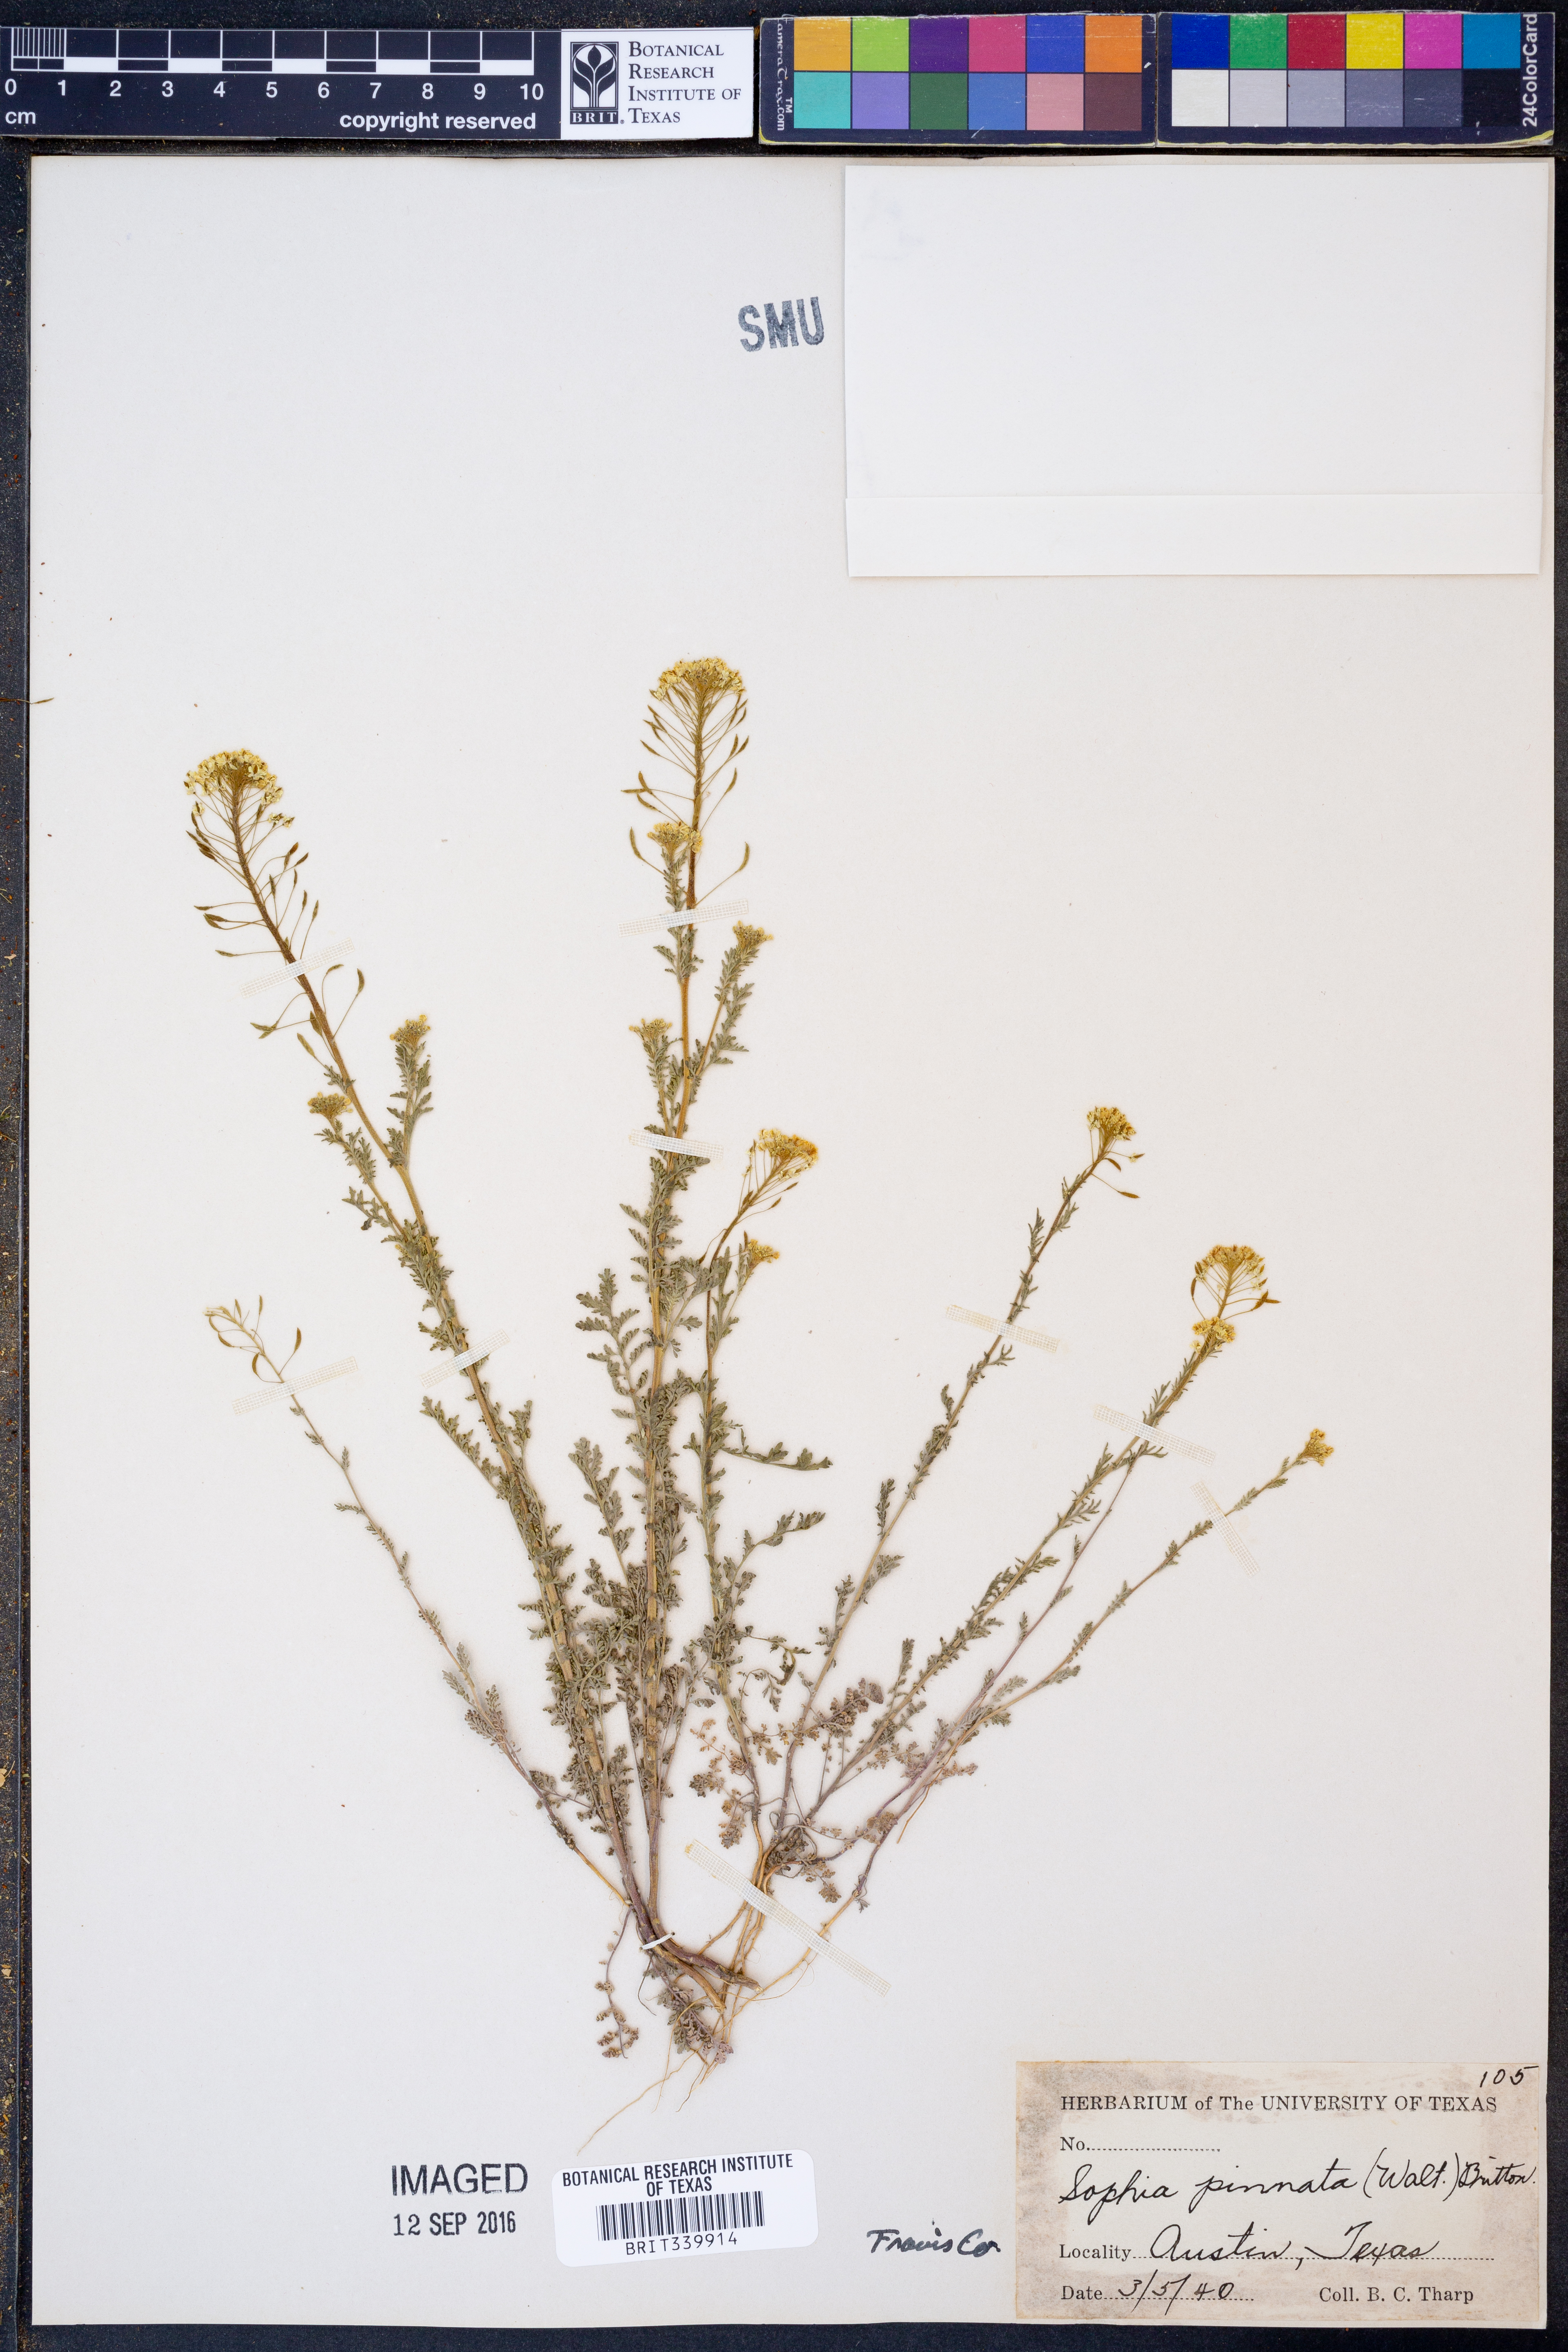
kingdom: Plantae
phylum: Tracheophyta
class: Magnoliopsida
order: Brassicales
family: Brassicaceae
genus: Descurainia
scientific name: Descurainia pinnata
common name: Western tansy mustard
